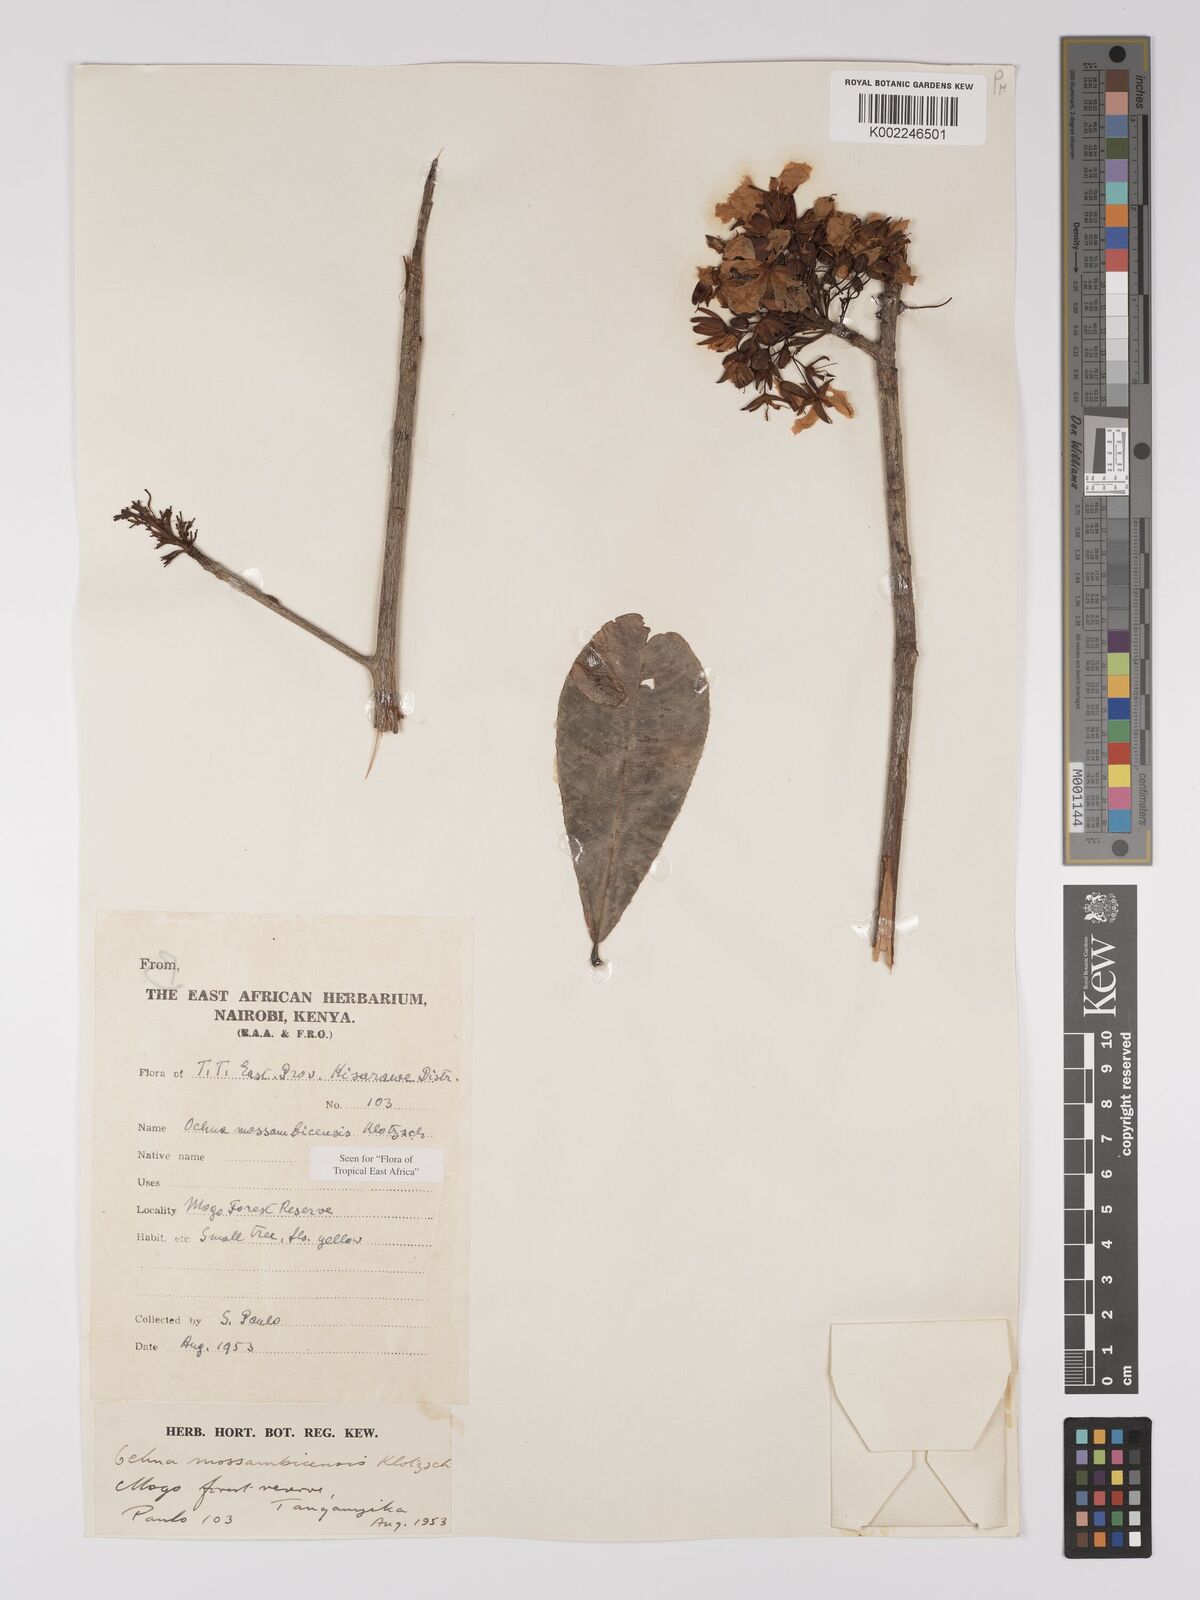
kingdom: Plantae
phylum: Tracheophyta
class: Magnoliopsida
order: Malpighiales
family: Ochnaceae
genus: Ochna
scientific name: Ochna atropurpurea
